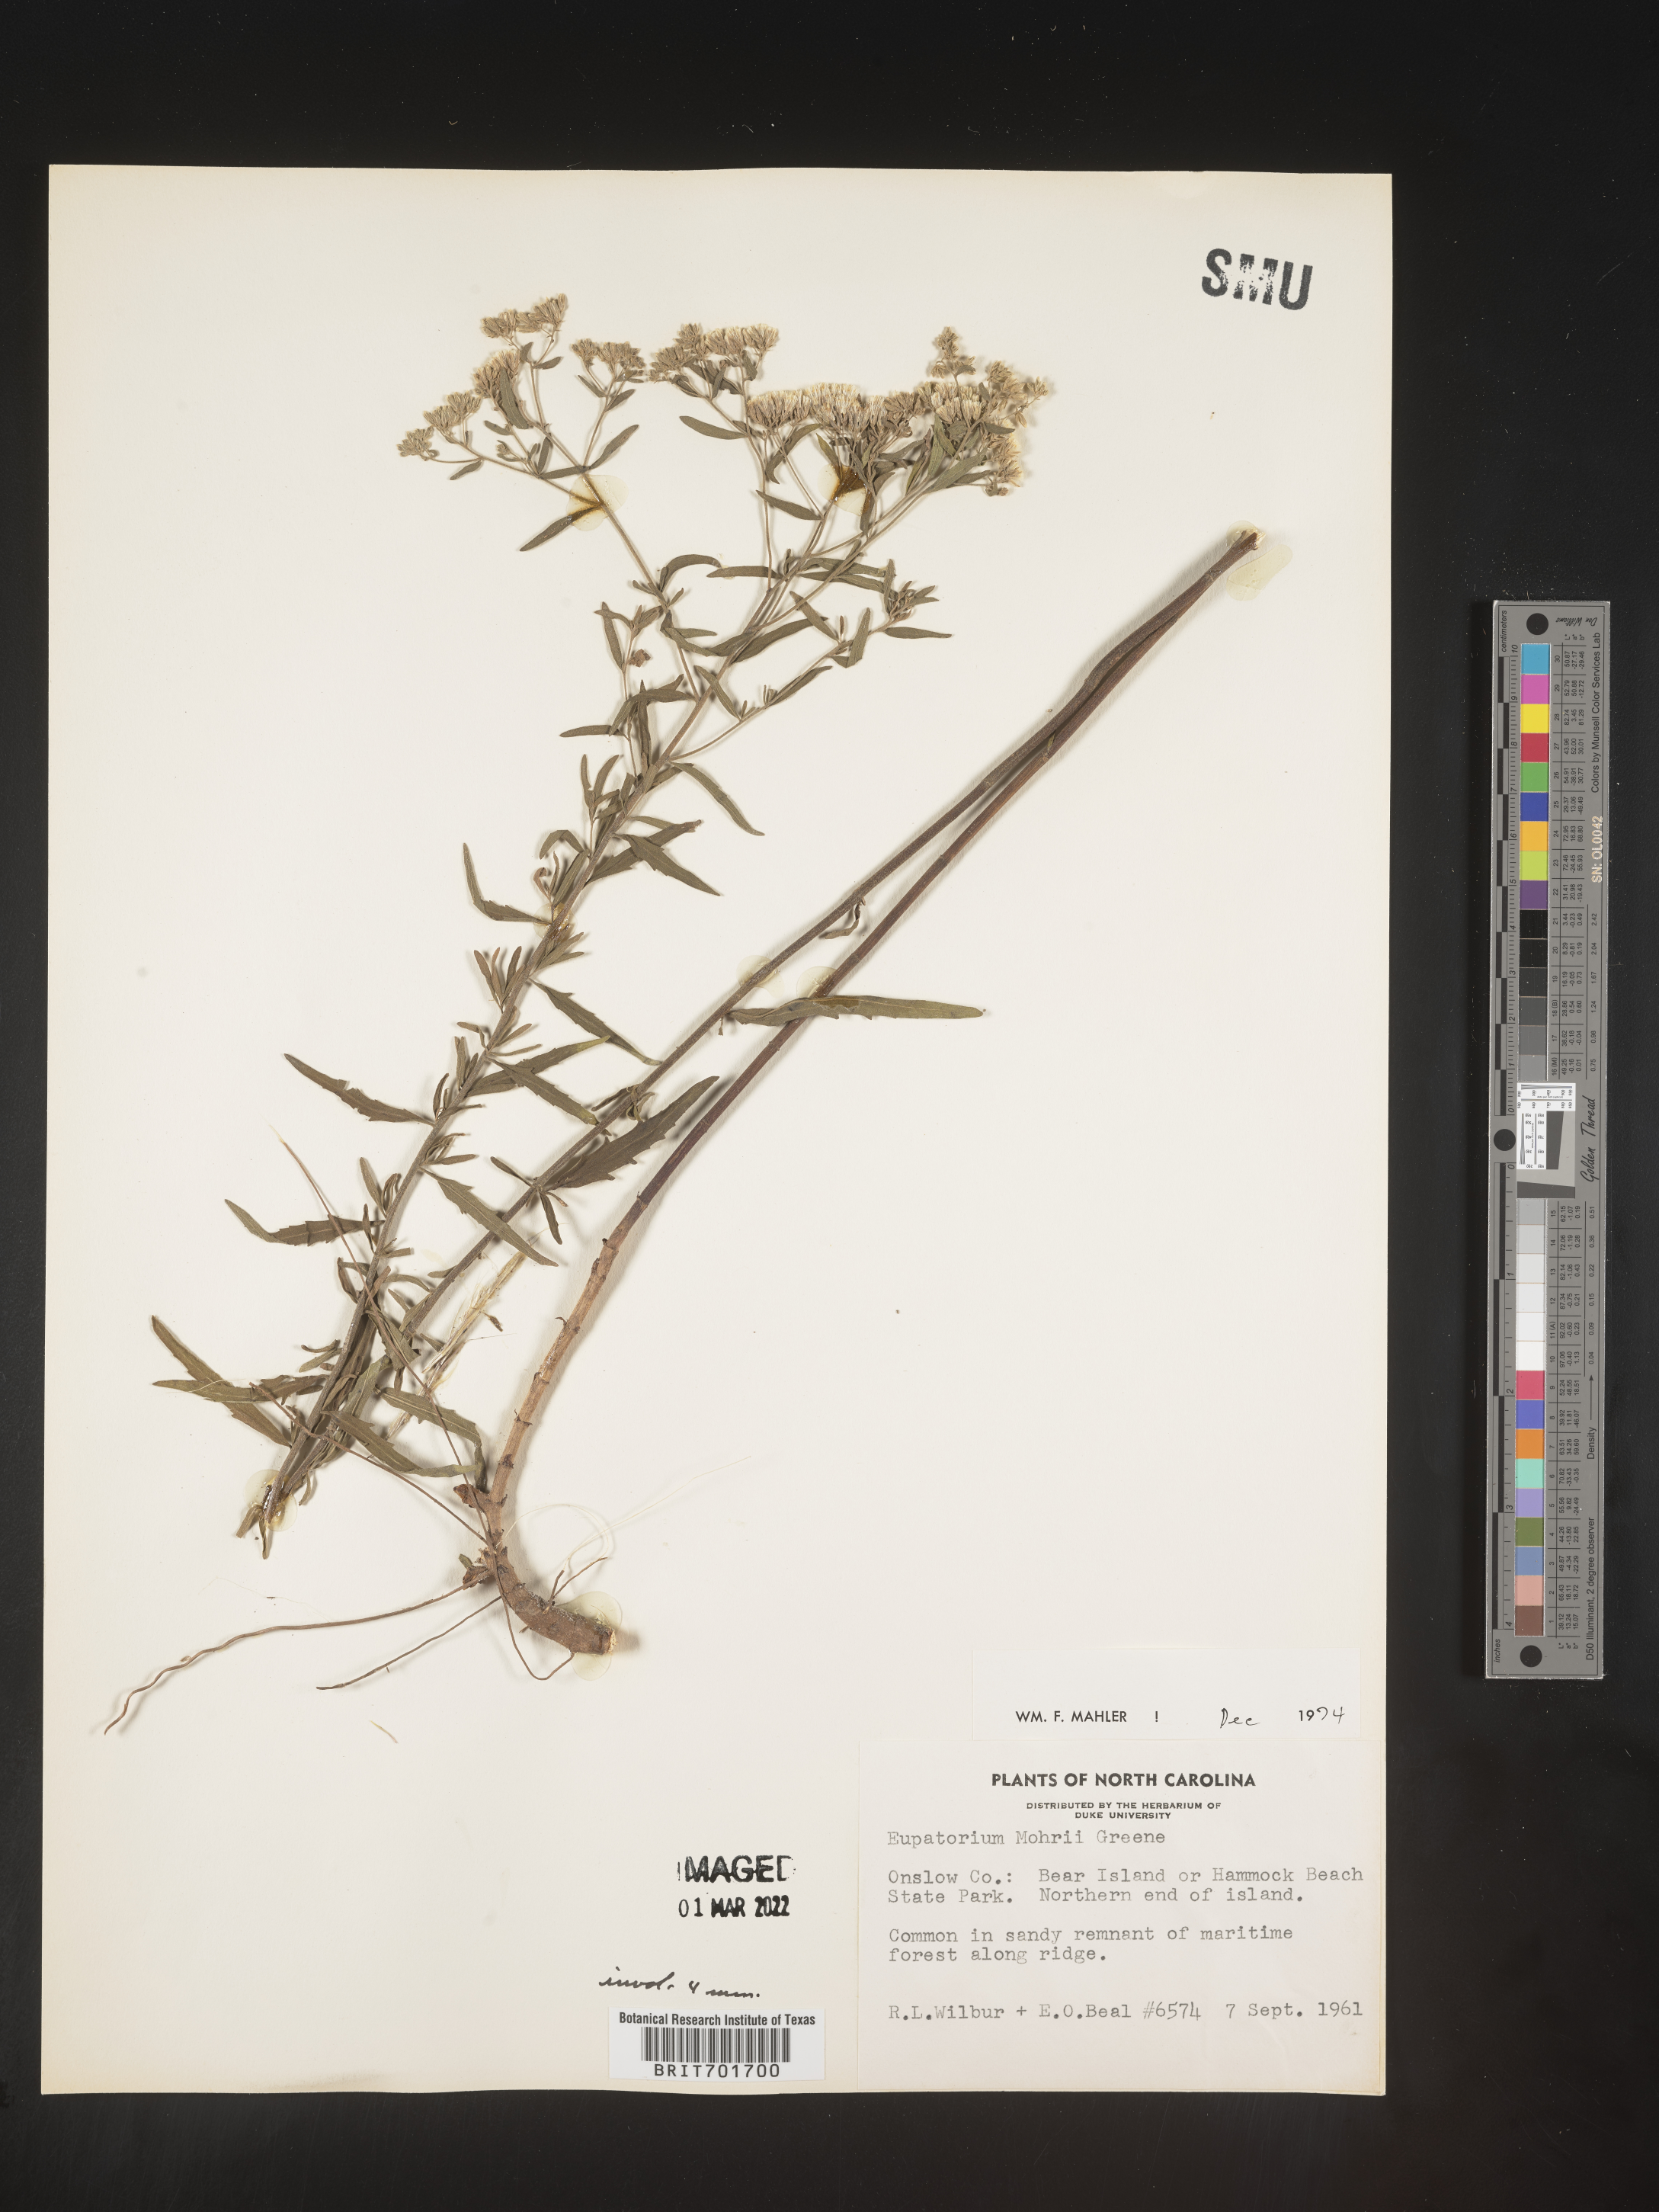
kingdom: Plantae
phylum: Tracheophyta
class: Magnoliopsida
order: Asterales
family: Asteraceae
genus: Eupatorium
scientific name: Eupatorium mohrii
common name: Mohr's thoroughwort
